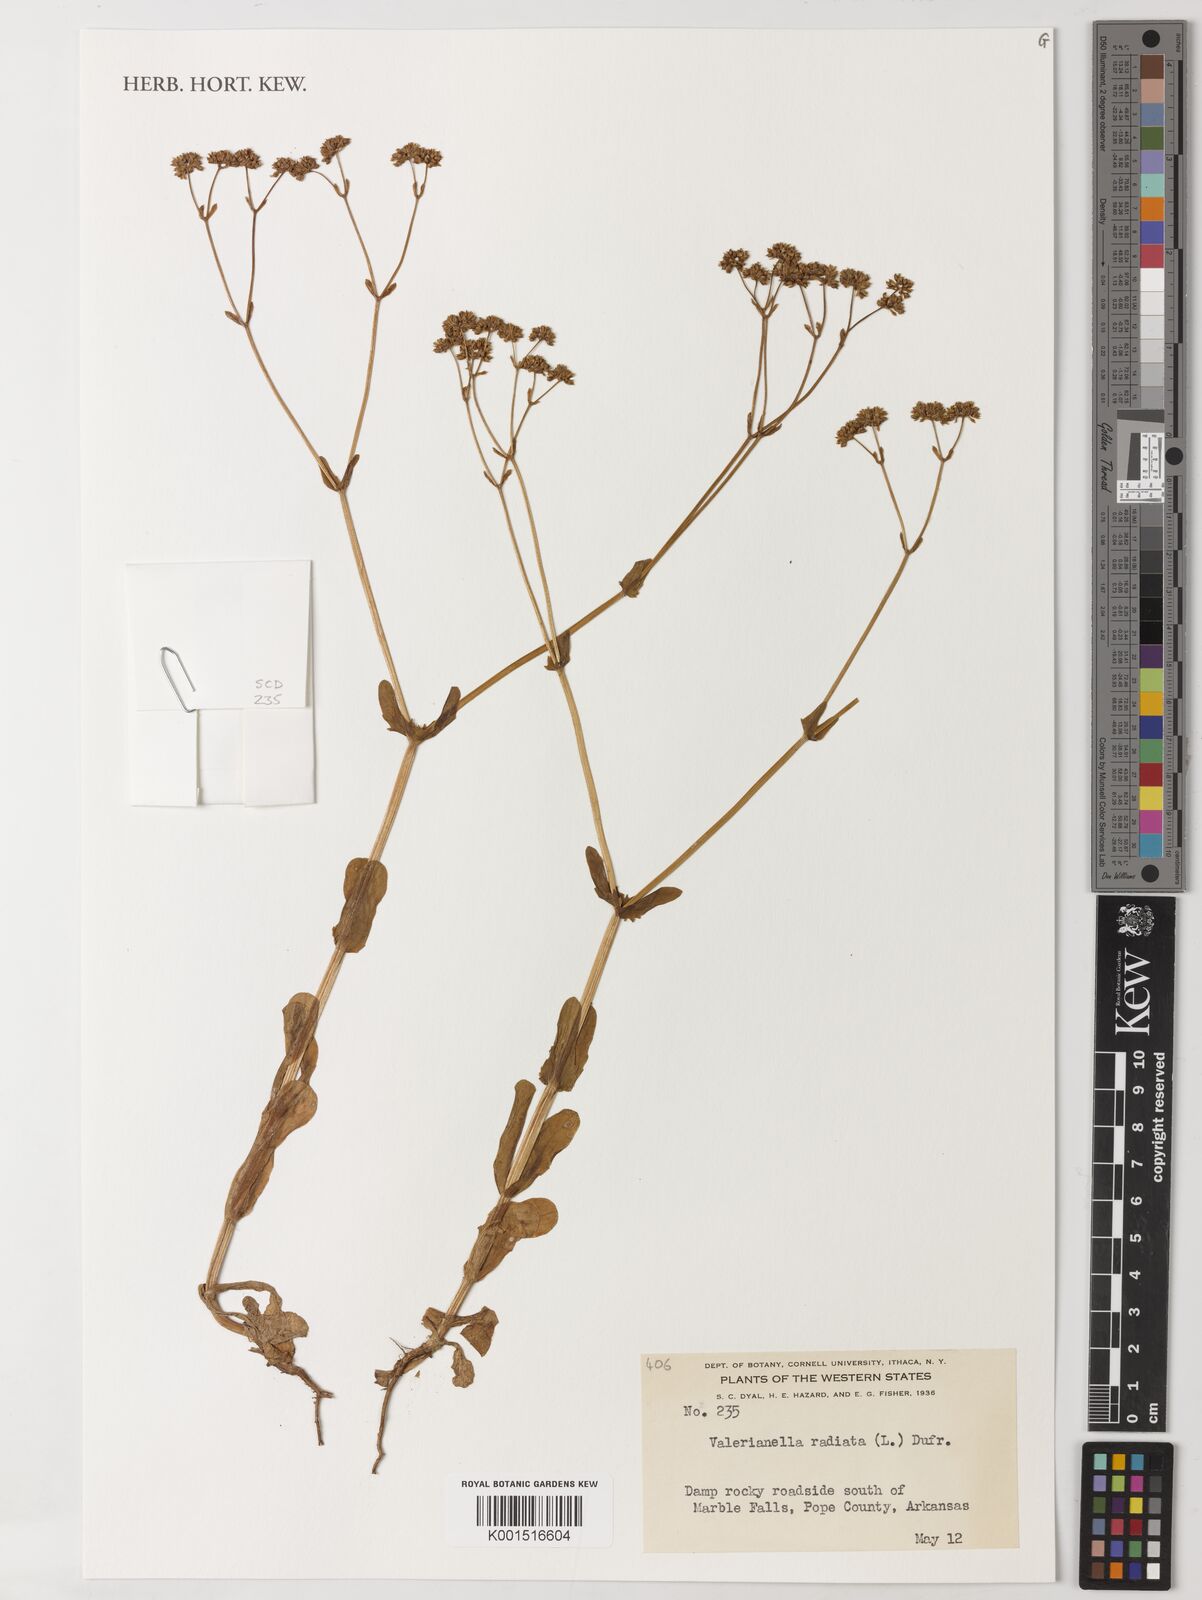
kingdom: Plantae
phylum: Tracheophyta
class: Magnoliopsida
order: Dipsacales
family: Caprifoliaceae
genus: Valerianella
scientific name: Valerianella radiata
